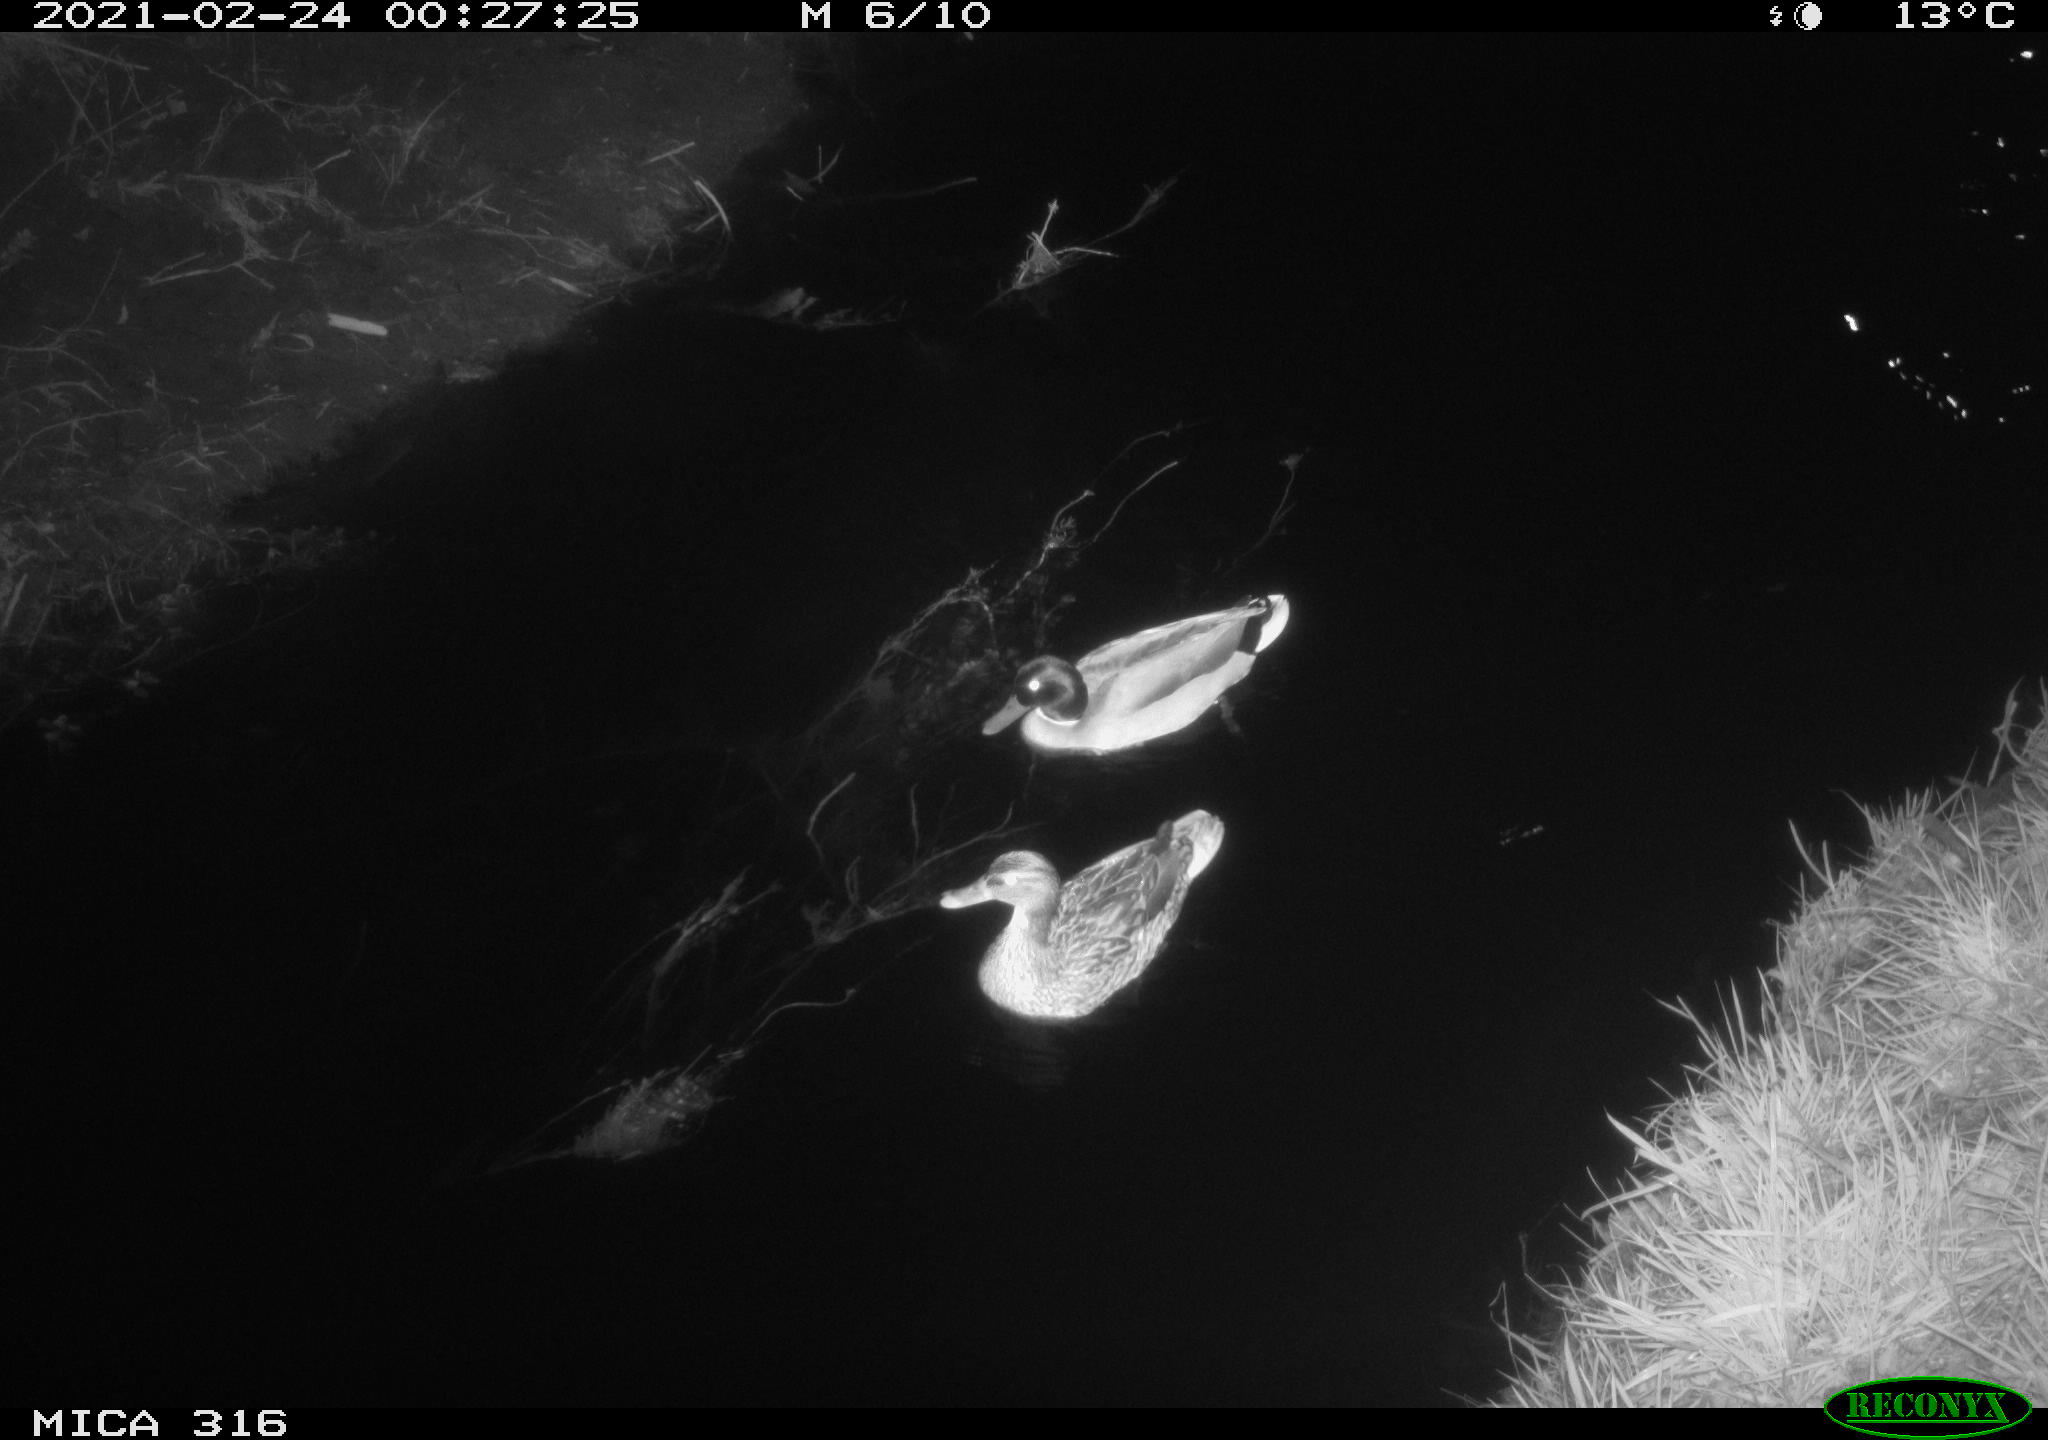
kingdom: Animalia
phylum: Chordata
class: Aves
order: Anseriformes
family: Anatidae
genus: Anas
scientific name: Anas platyrhynchos
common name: Mallard
